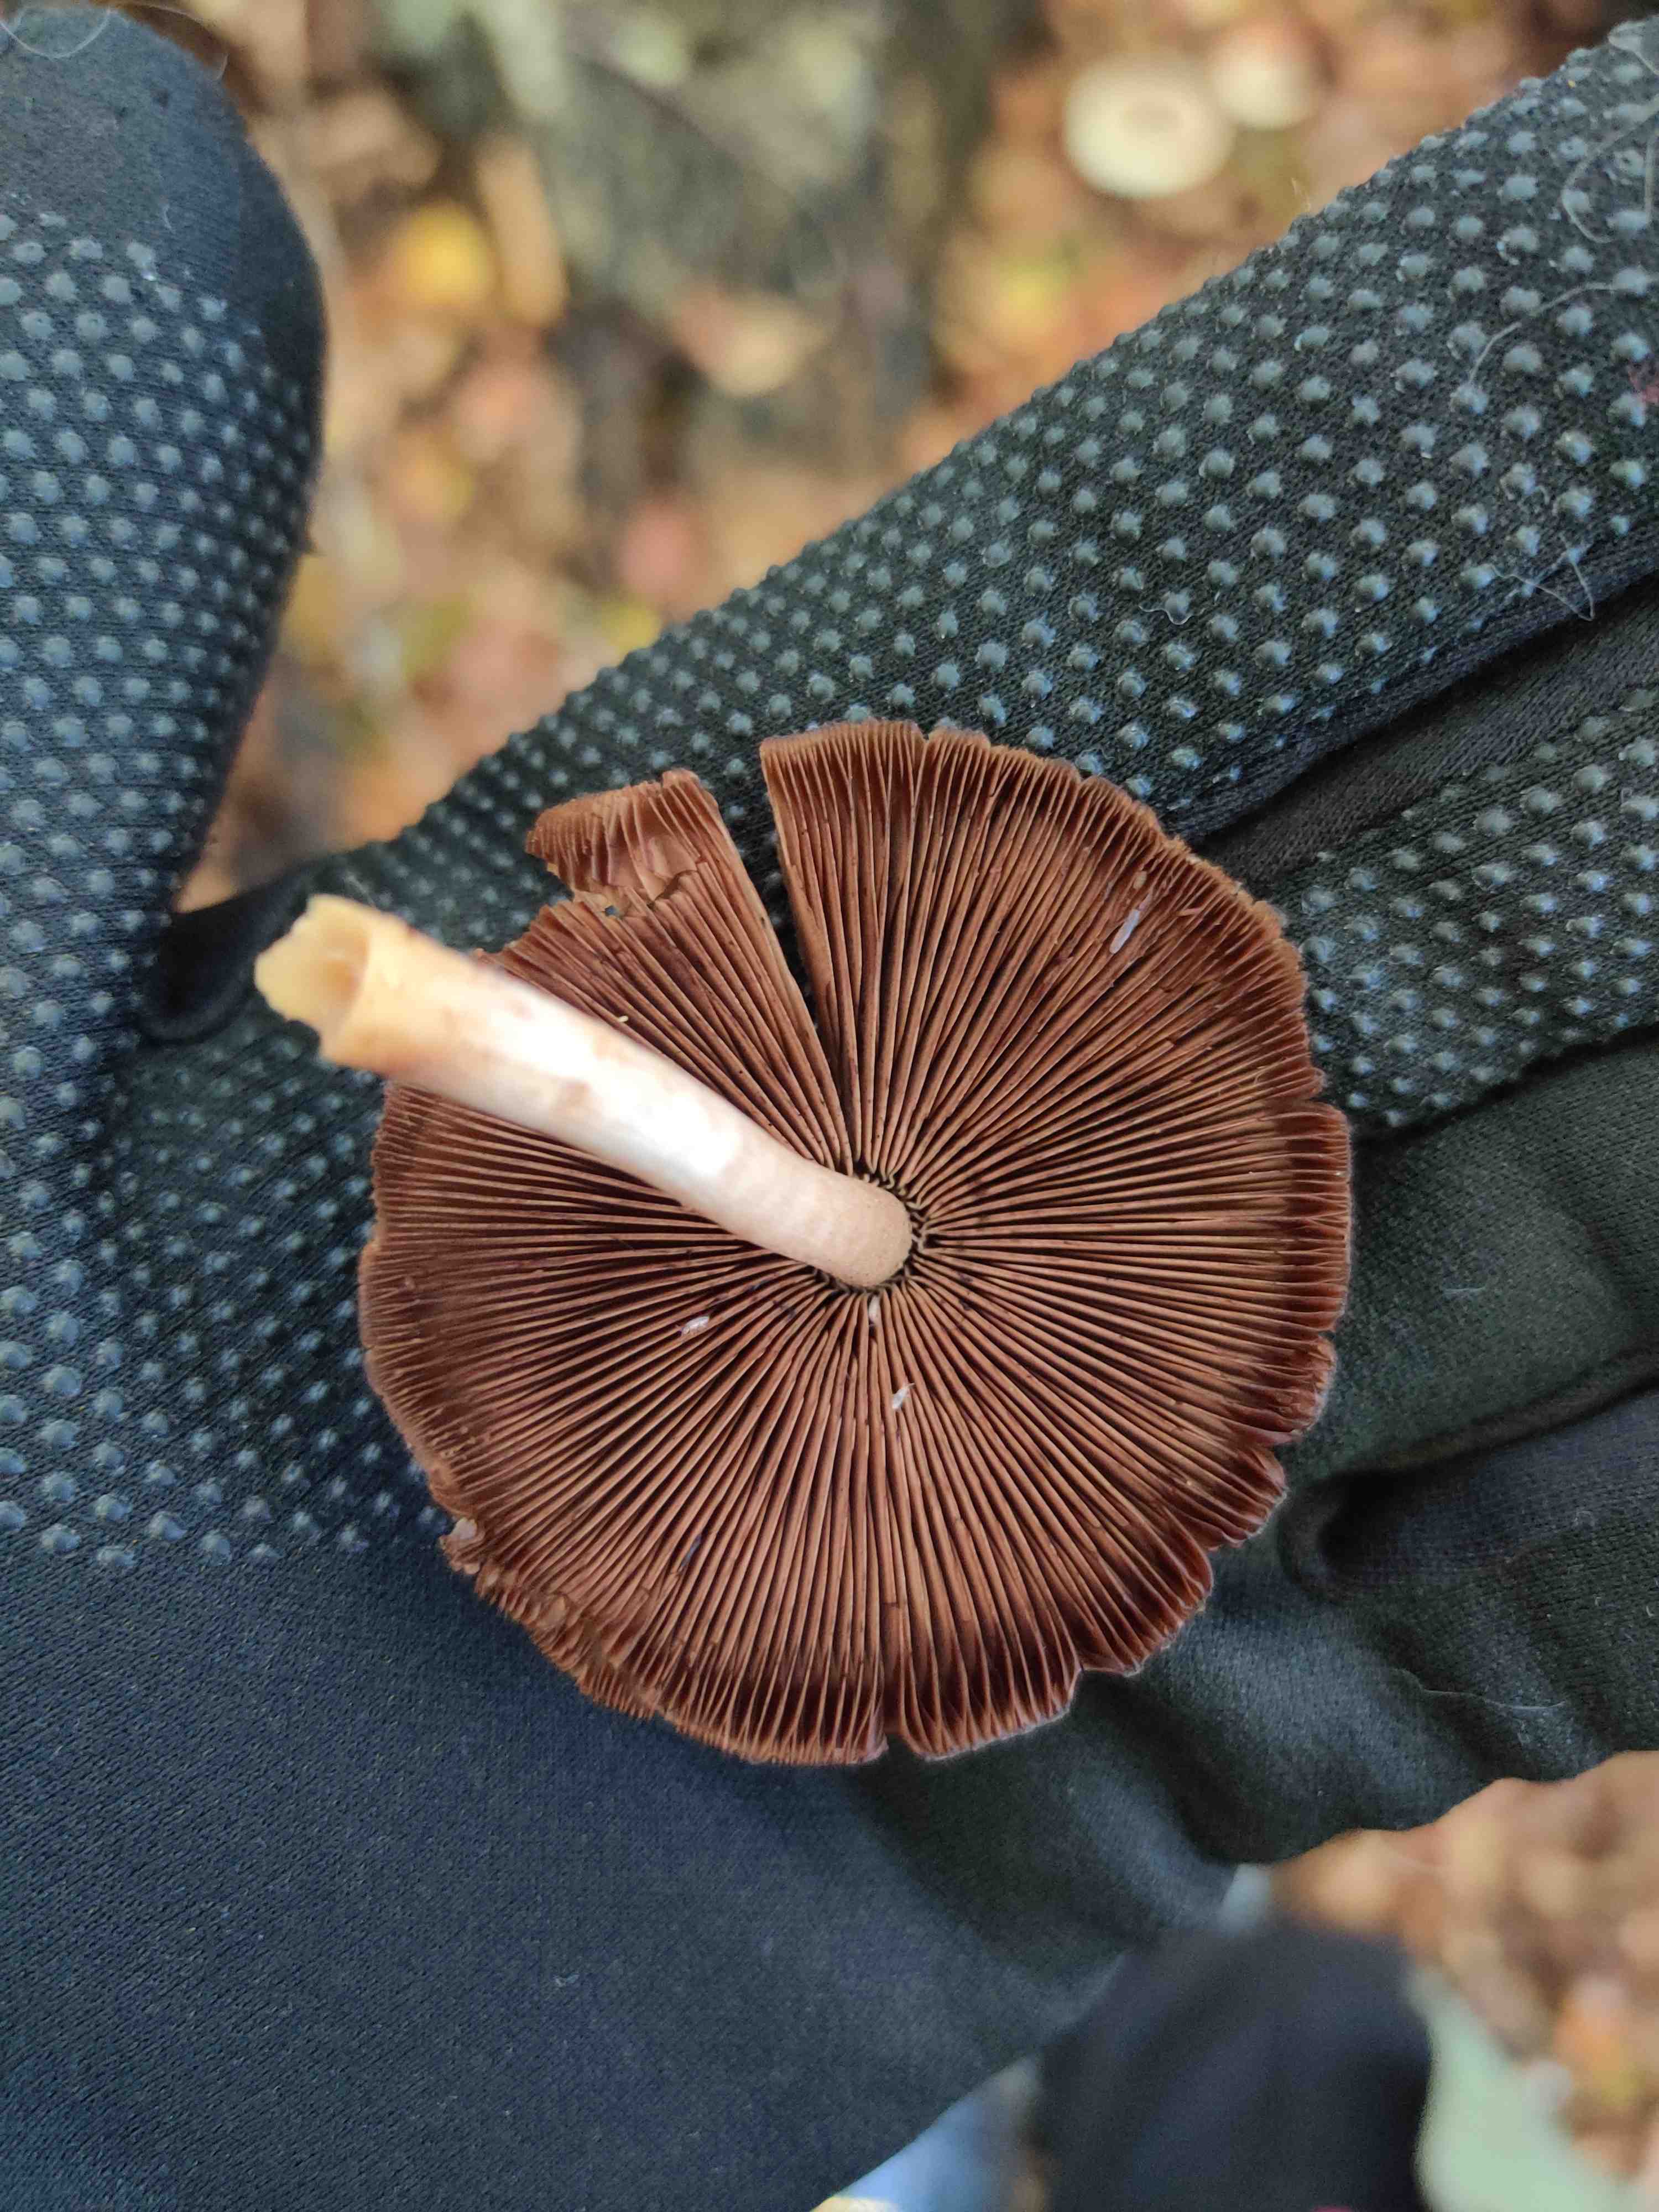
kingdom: Fungi
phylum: Basidiomycota
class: Agaricomycetes
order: Agaricales
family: Psathyrellaceae
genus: Psathyrella
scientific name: Psathyrella piluliformis
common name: lysstokket mørkhat
